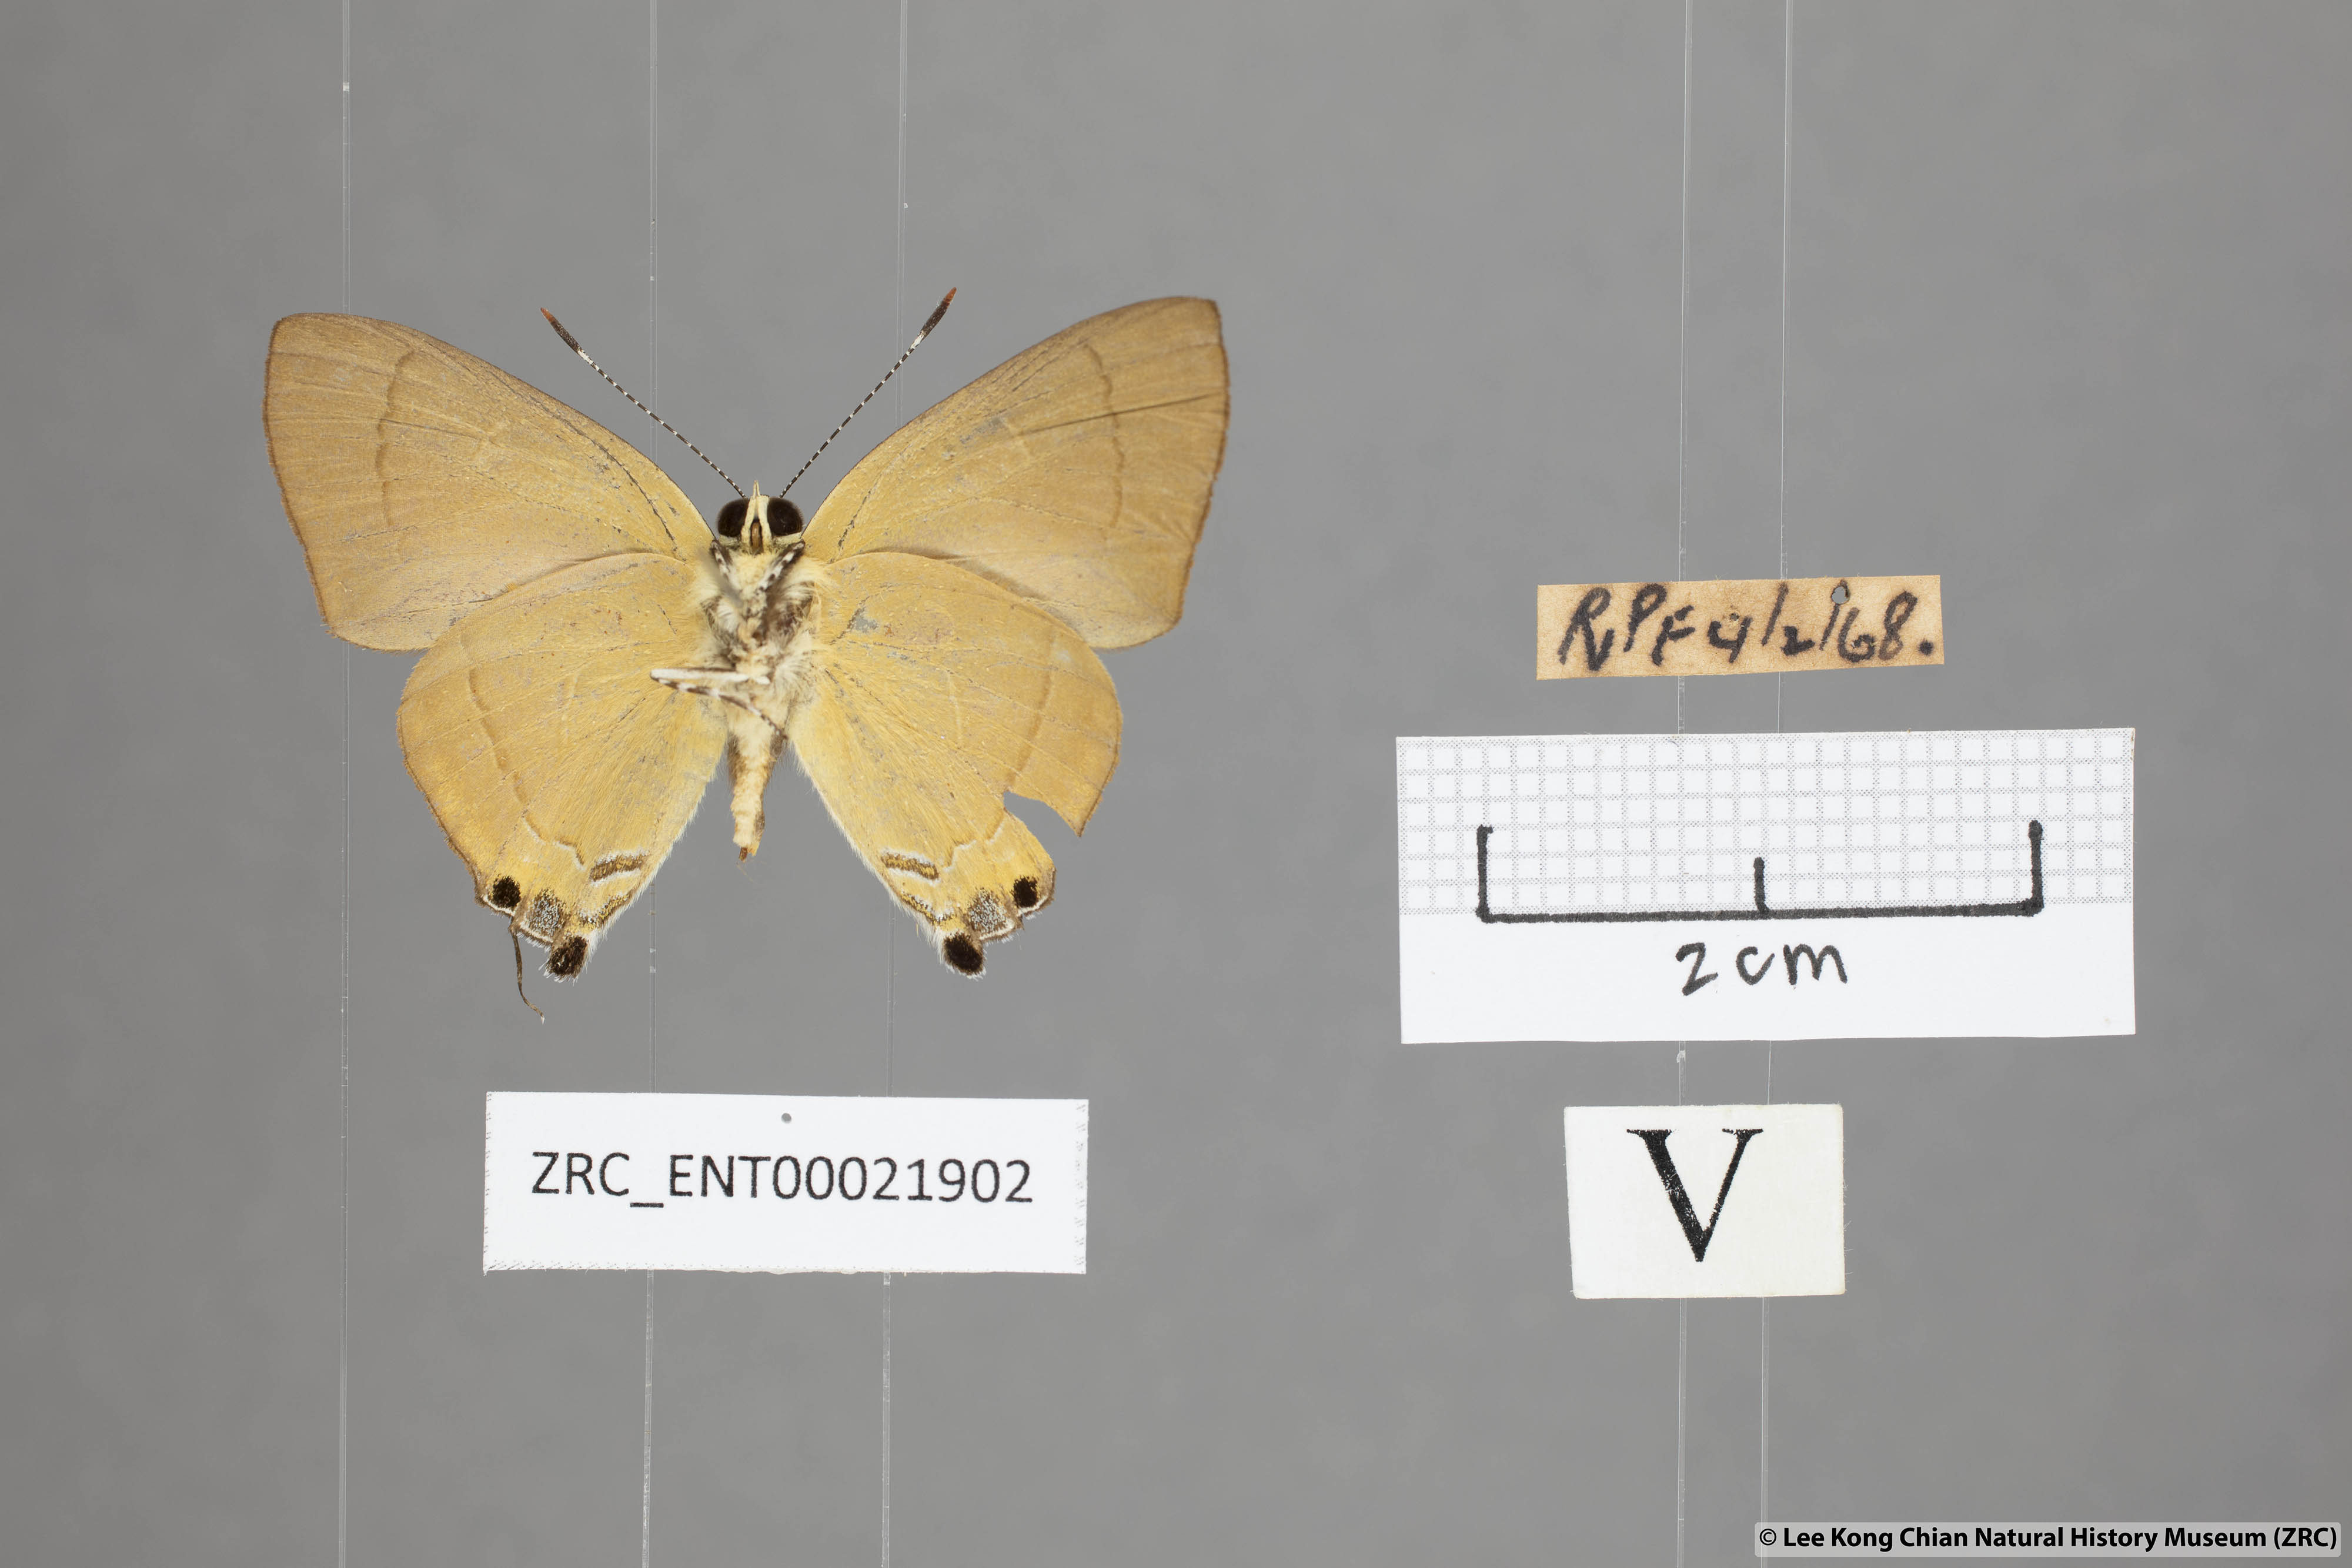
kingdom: Animalia
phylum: Arthropoda
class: Insecta
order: Lepidoptera
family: Lycaenidae
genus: Rapala
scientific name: Rapala suffusa
